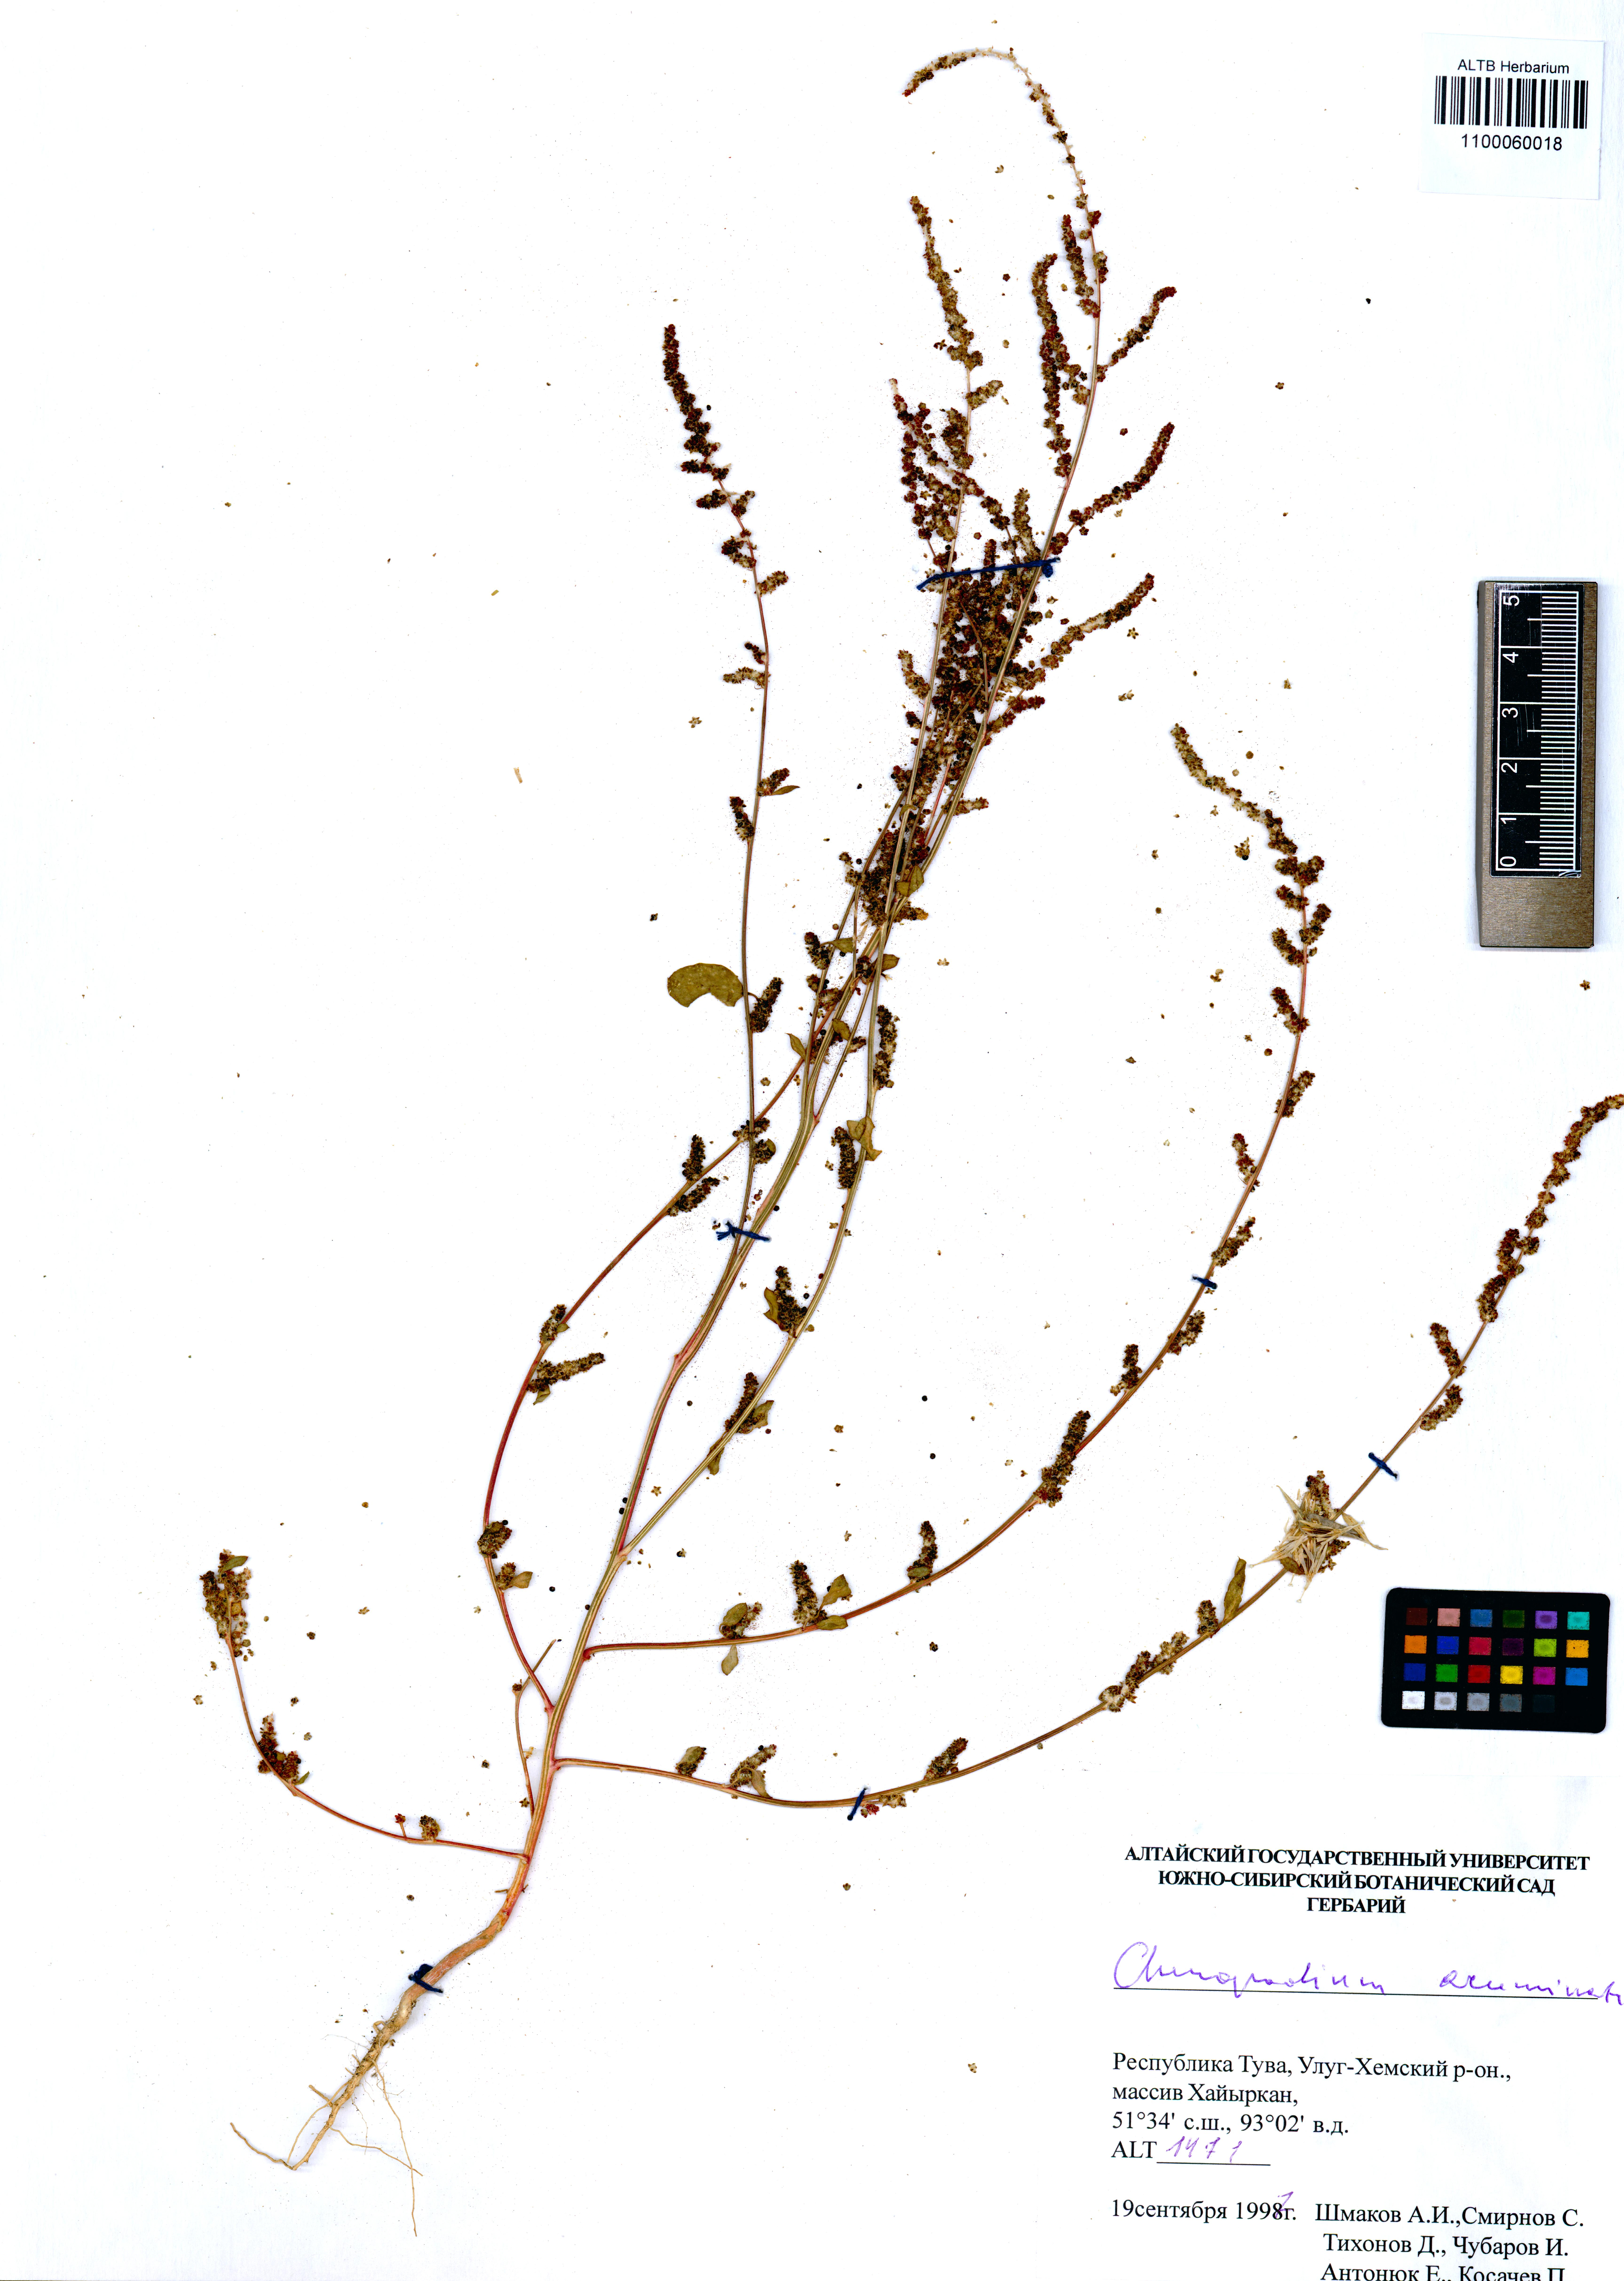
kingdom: Plantae
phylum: Tracheophyta
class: Magnoliopsida
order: Caryophyllales
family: Amaranthaceae
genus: Chenopodium
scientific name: Chenopodium acuminatum
